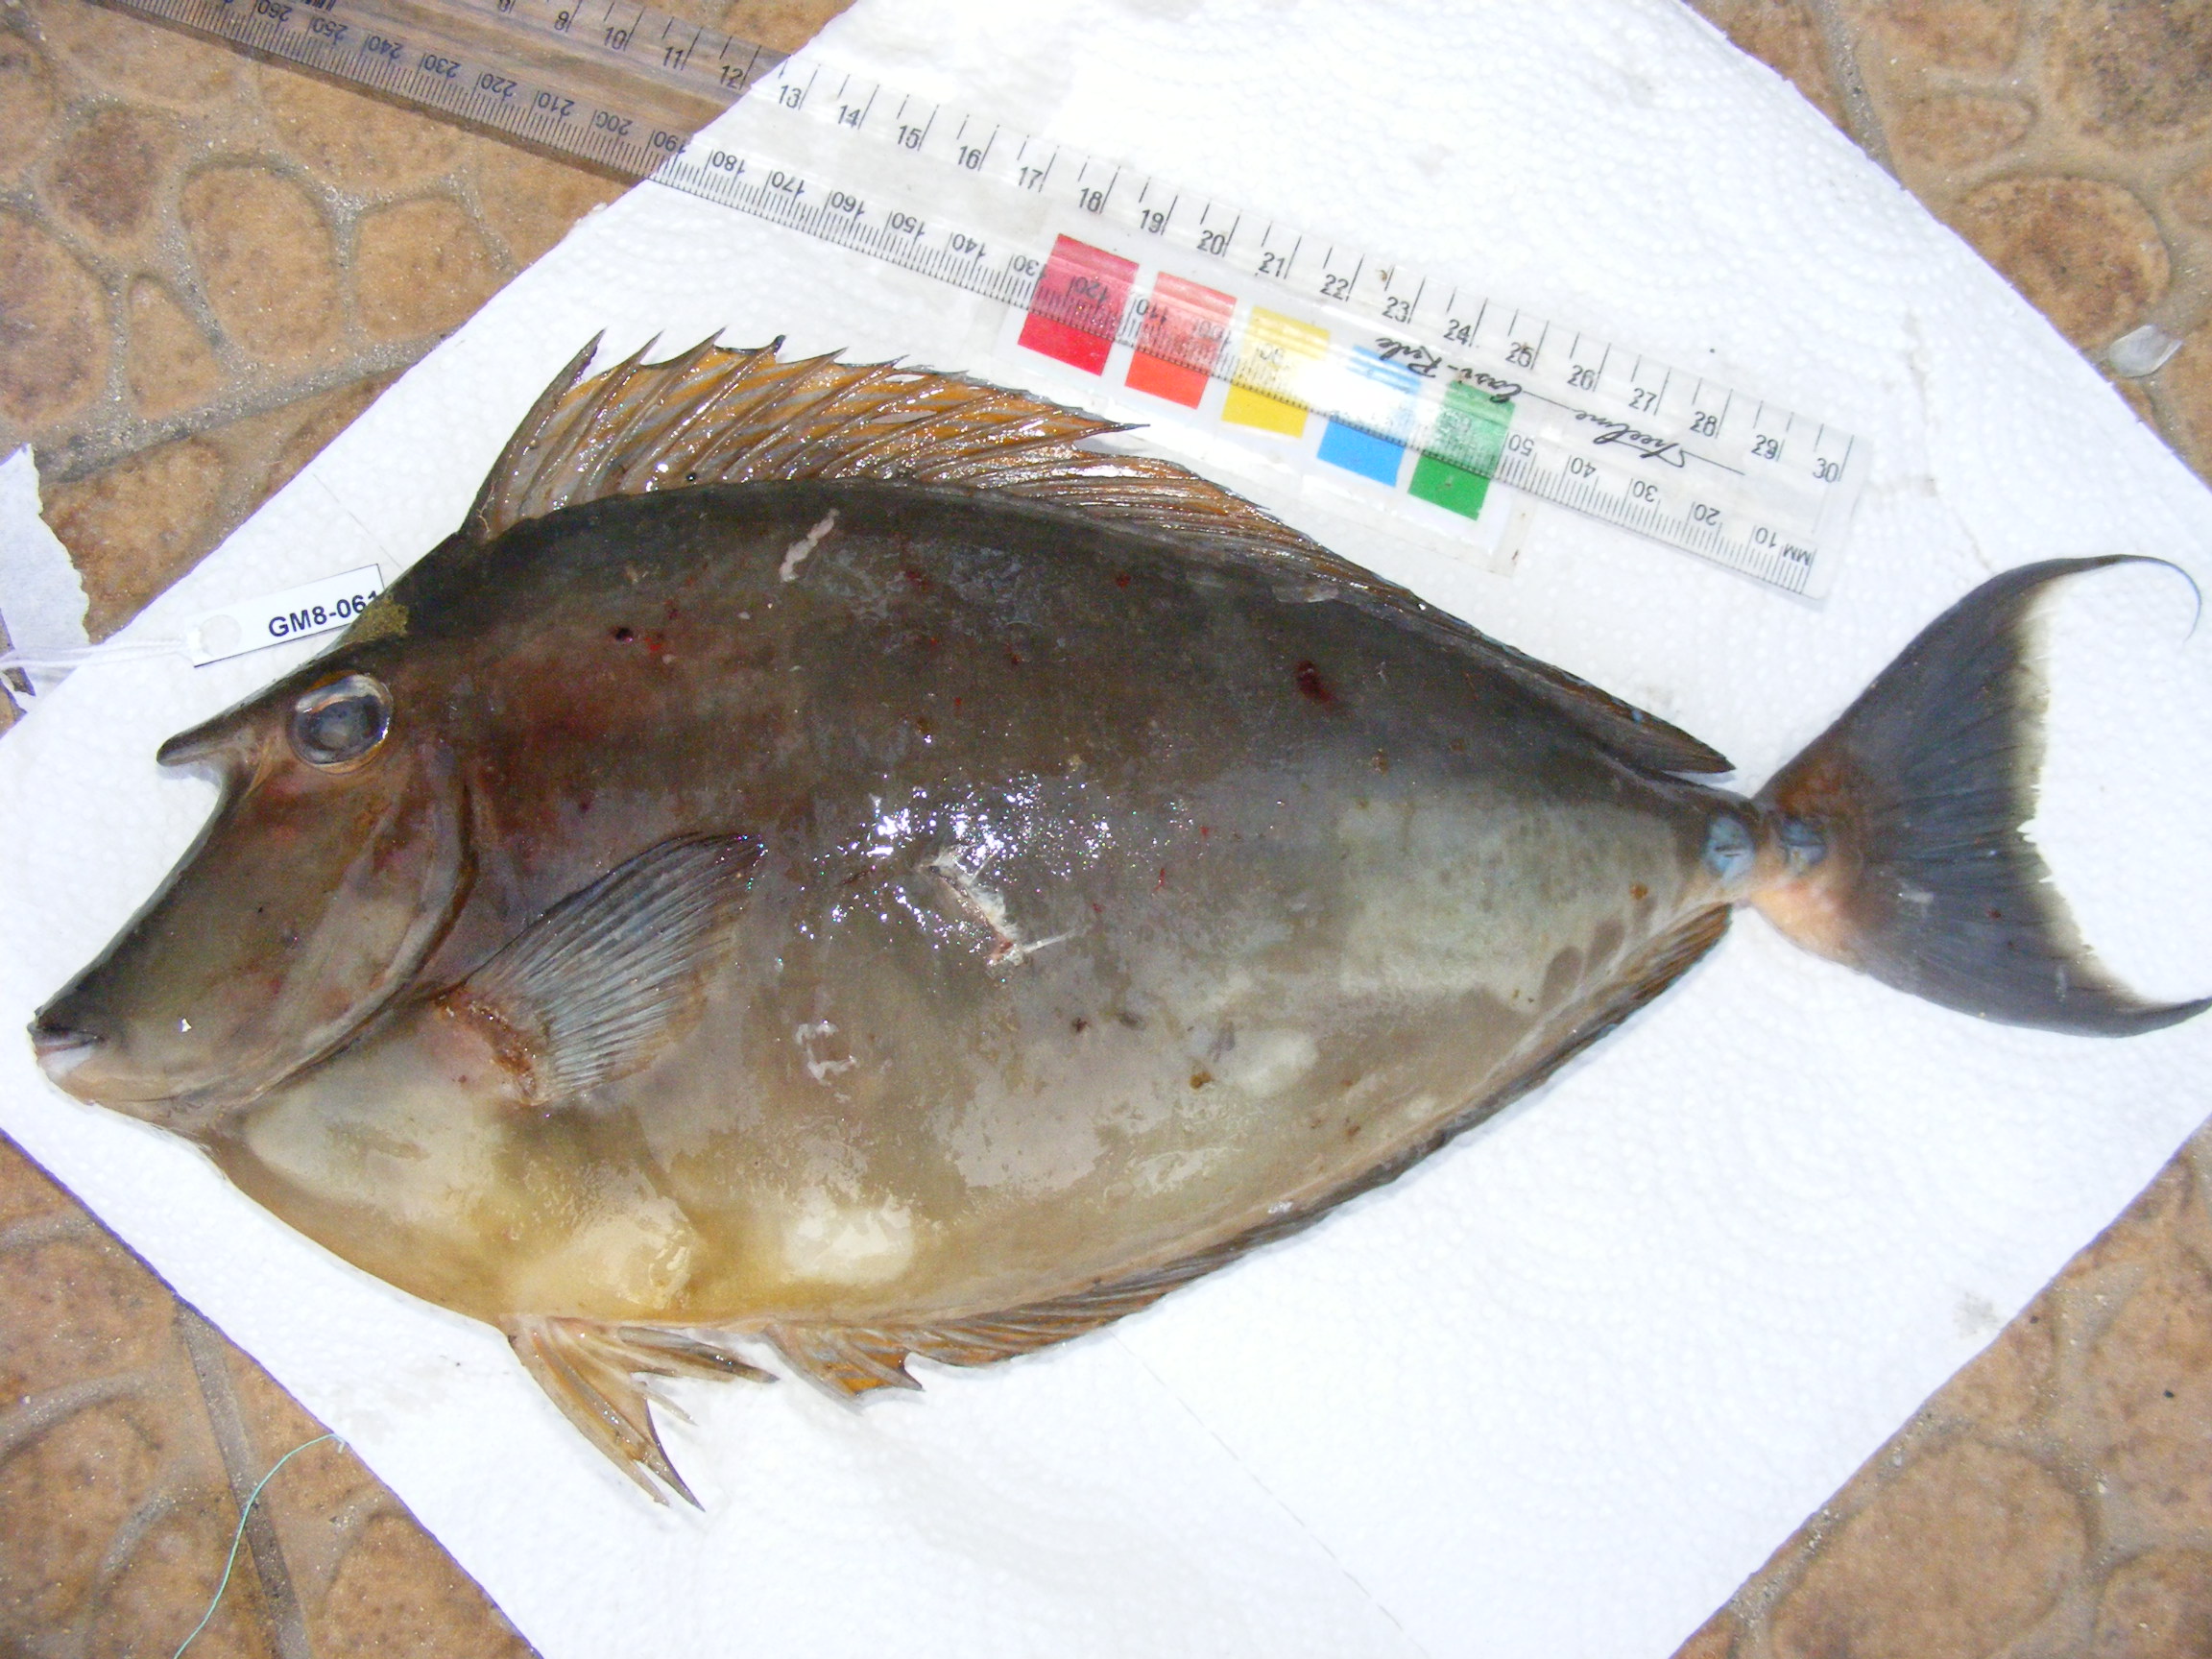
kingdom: Animalia
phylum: Chordata
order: Perciformes
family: Acanthuridae
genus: Naso
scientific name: Naso unicornis
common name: Bluespine unicornfish
